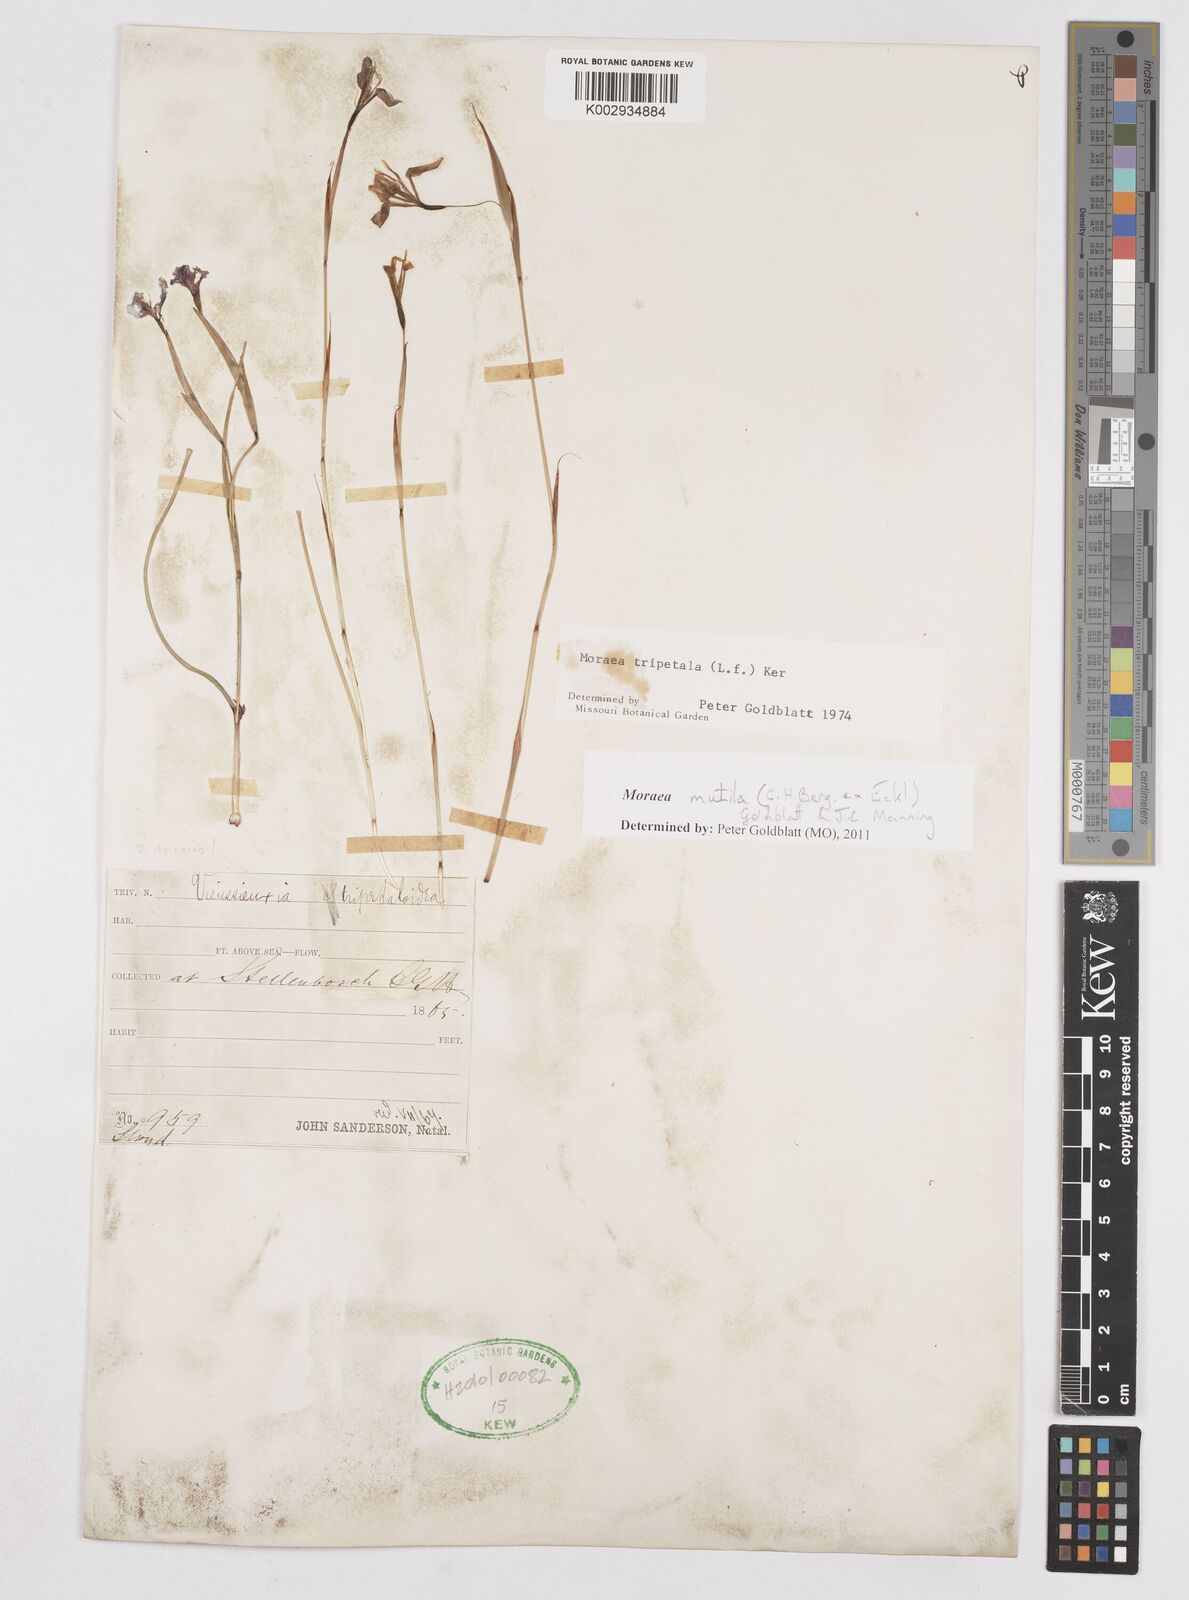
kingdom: Plantae
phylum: Tracheophyta
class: Liliopsida
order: Asparagales
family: Iridaceae
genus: Moraea
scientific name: Moraea punctata
